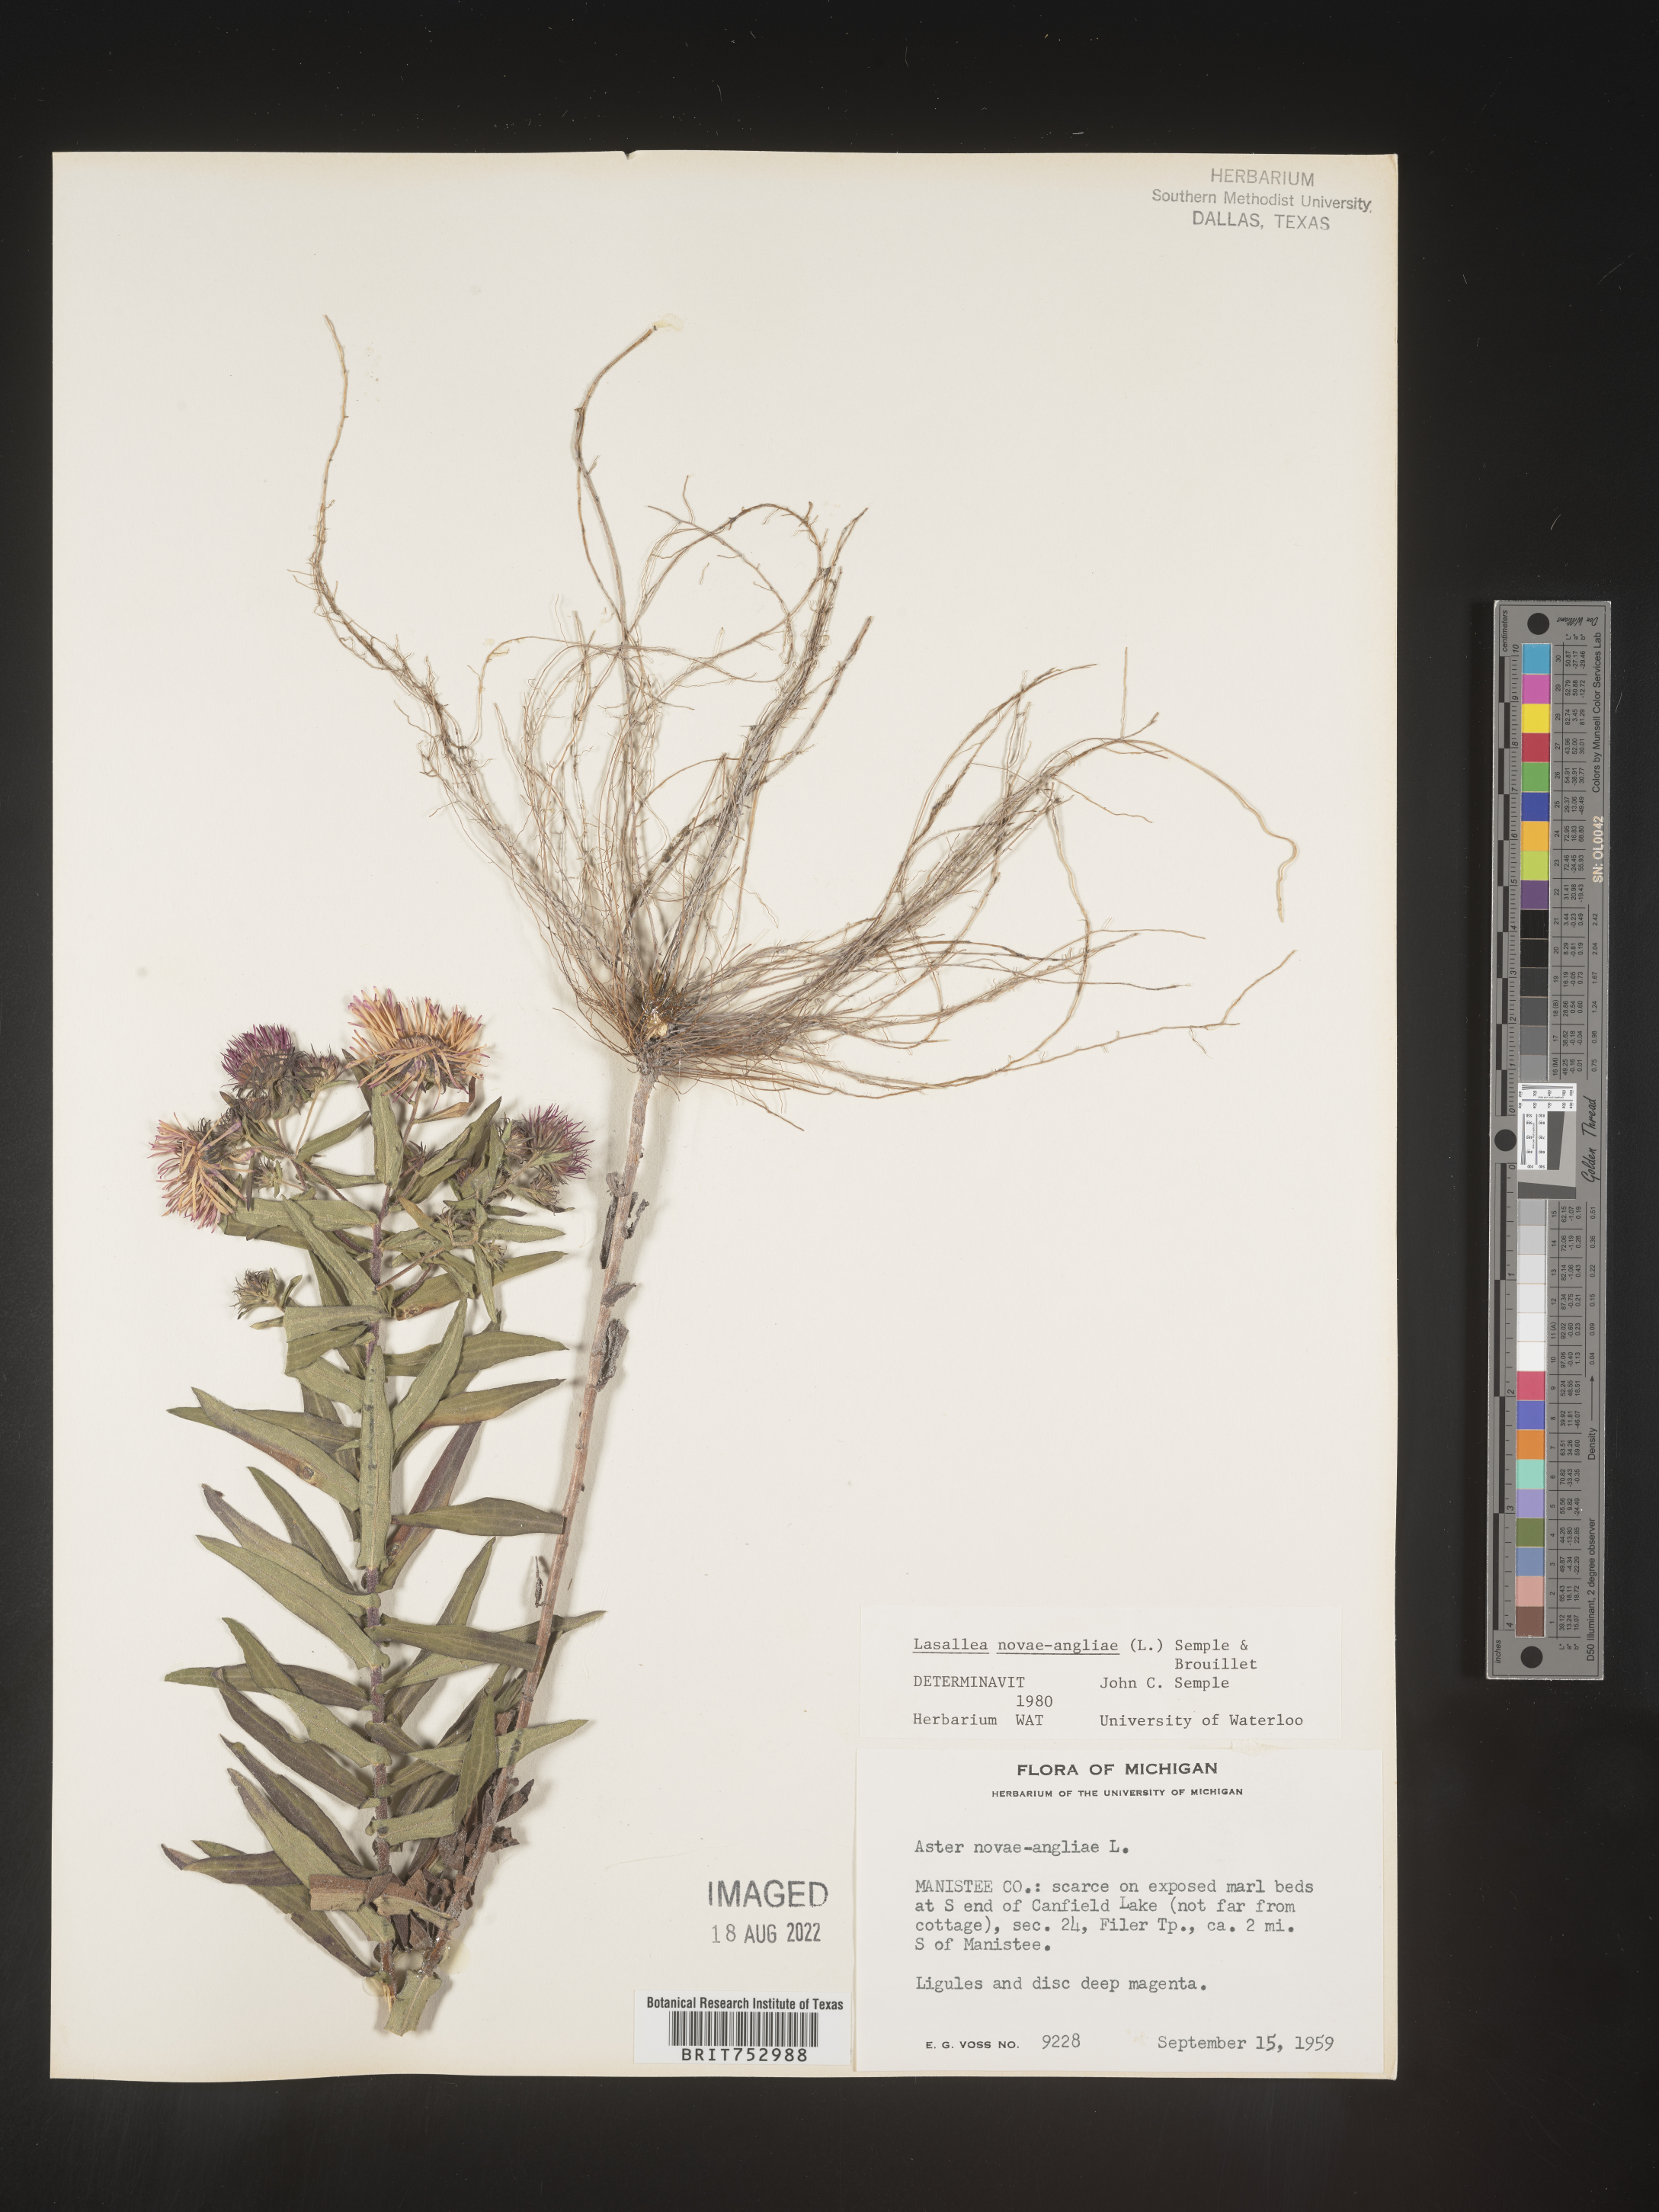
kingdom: Plantae
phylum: Tracheophyta
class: Magnoliopsida
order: Asterales
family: Asteraceae
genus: Symphyotrichum
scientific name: Symphyotrichum novae-angliae
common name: Michaelmas daisy
